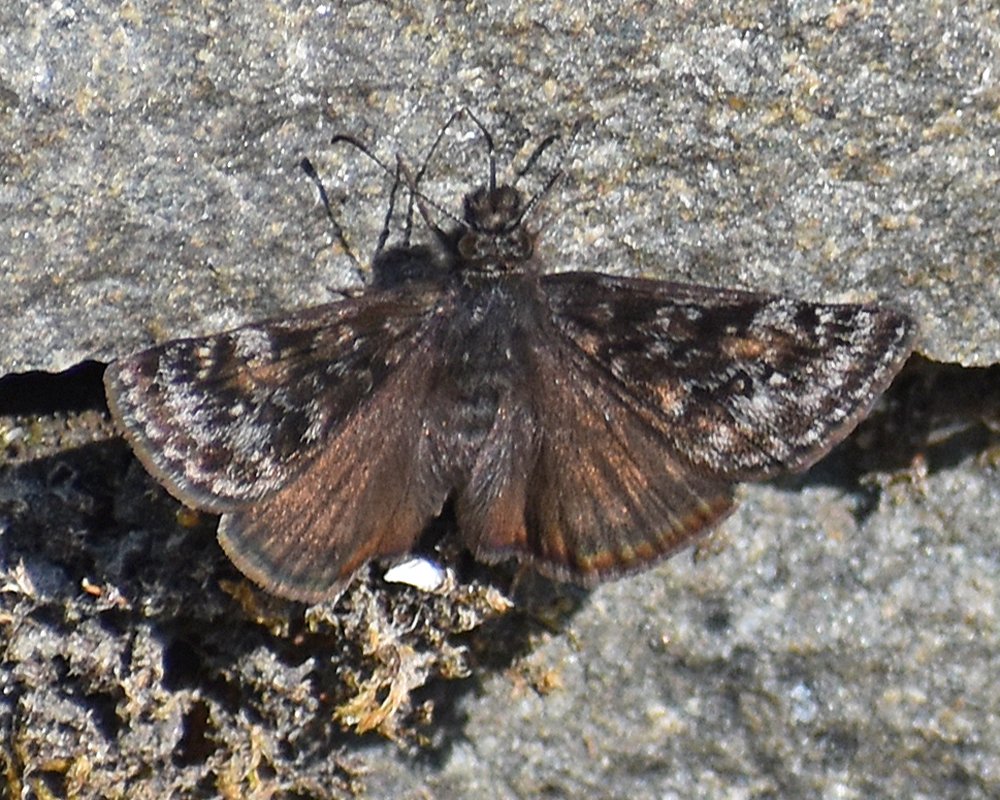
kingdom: Animalia
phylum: Arthropoda
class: Insecta
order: Lepidoptera
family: Hesperiidae
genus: Erynnis
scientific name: Erynnis pacuvius
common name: Pacuvius Duskywing
